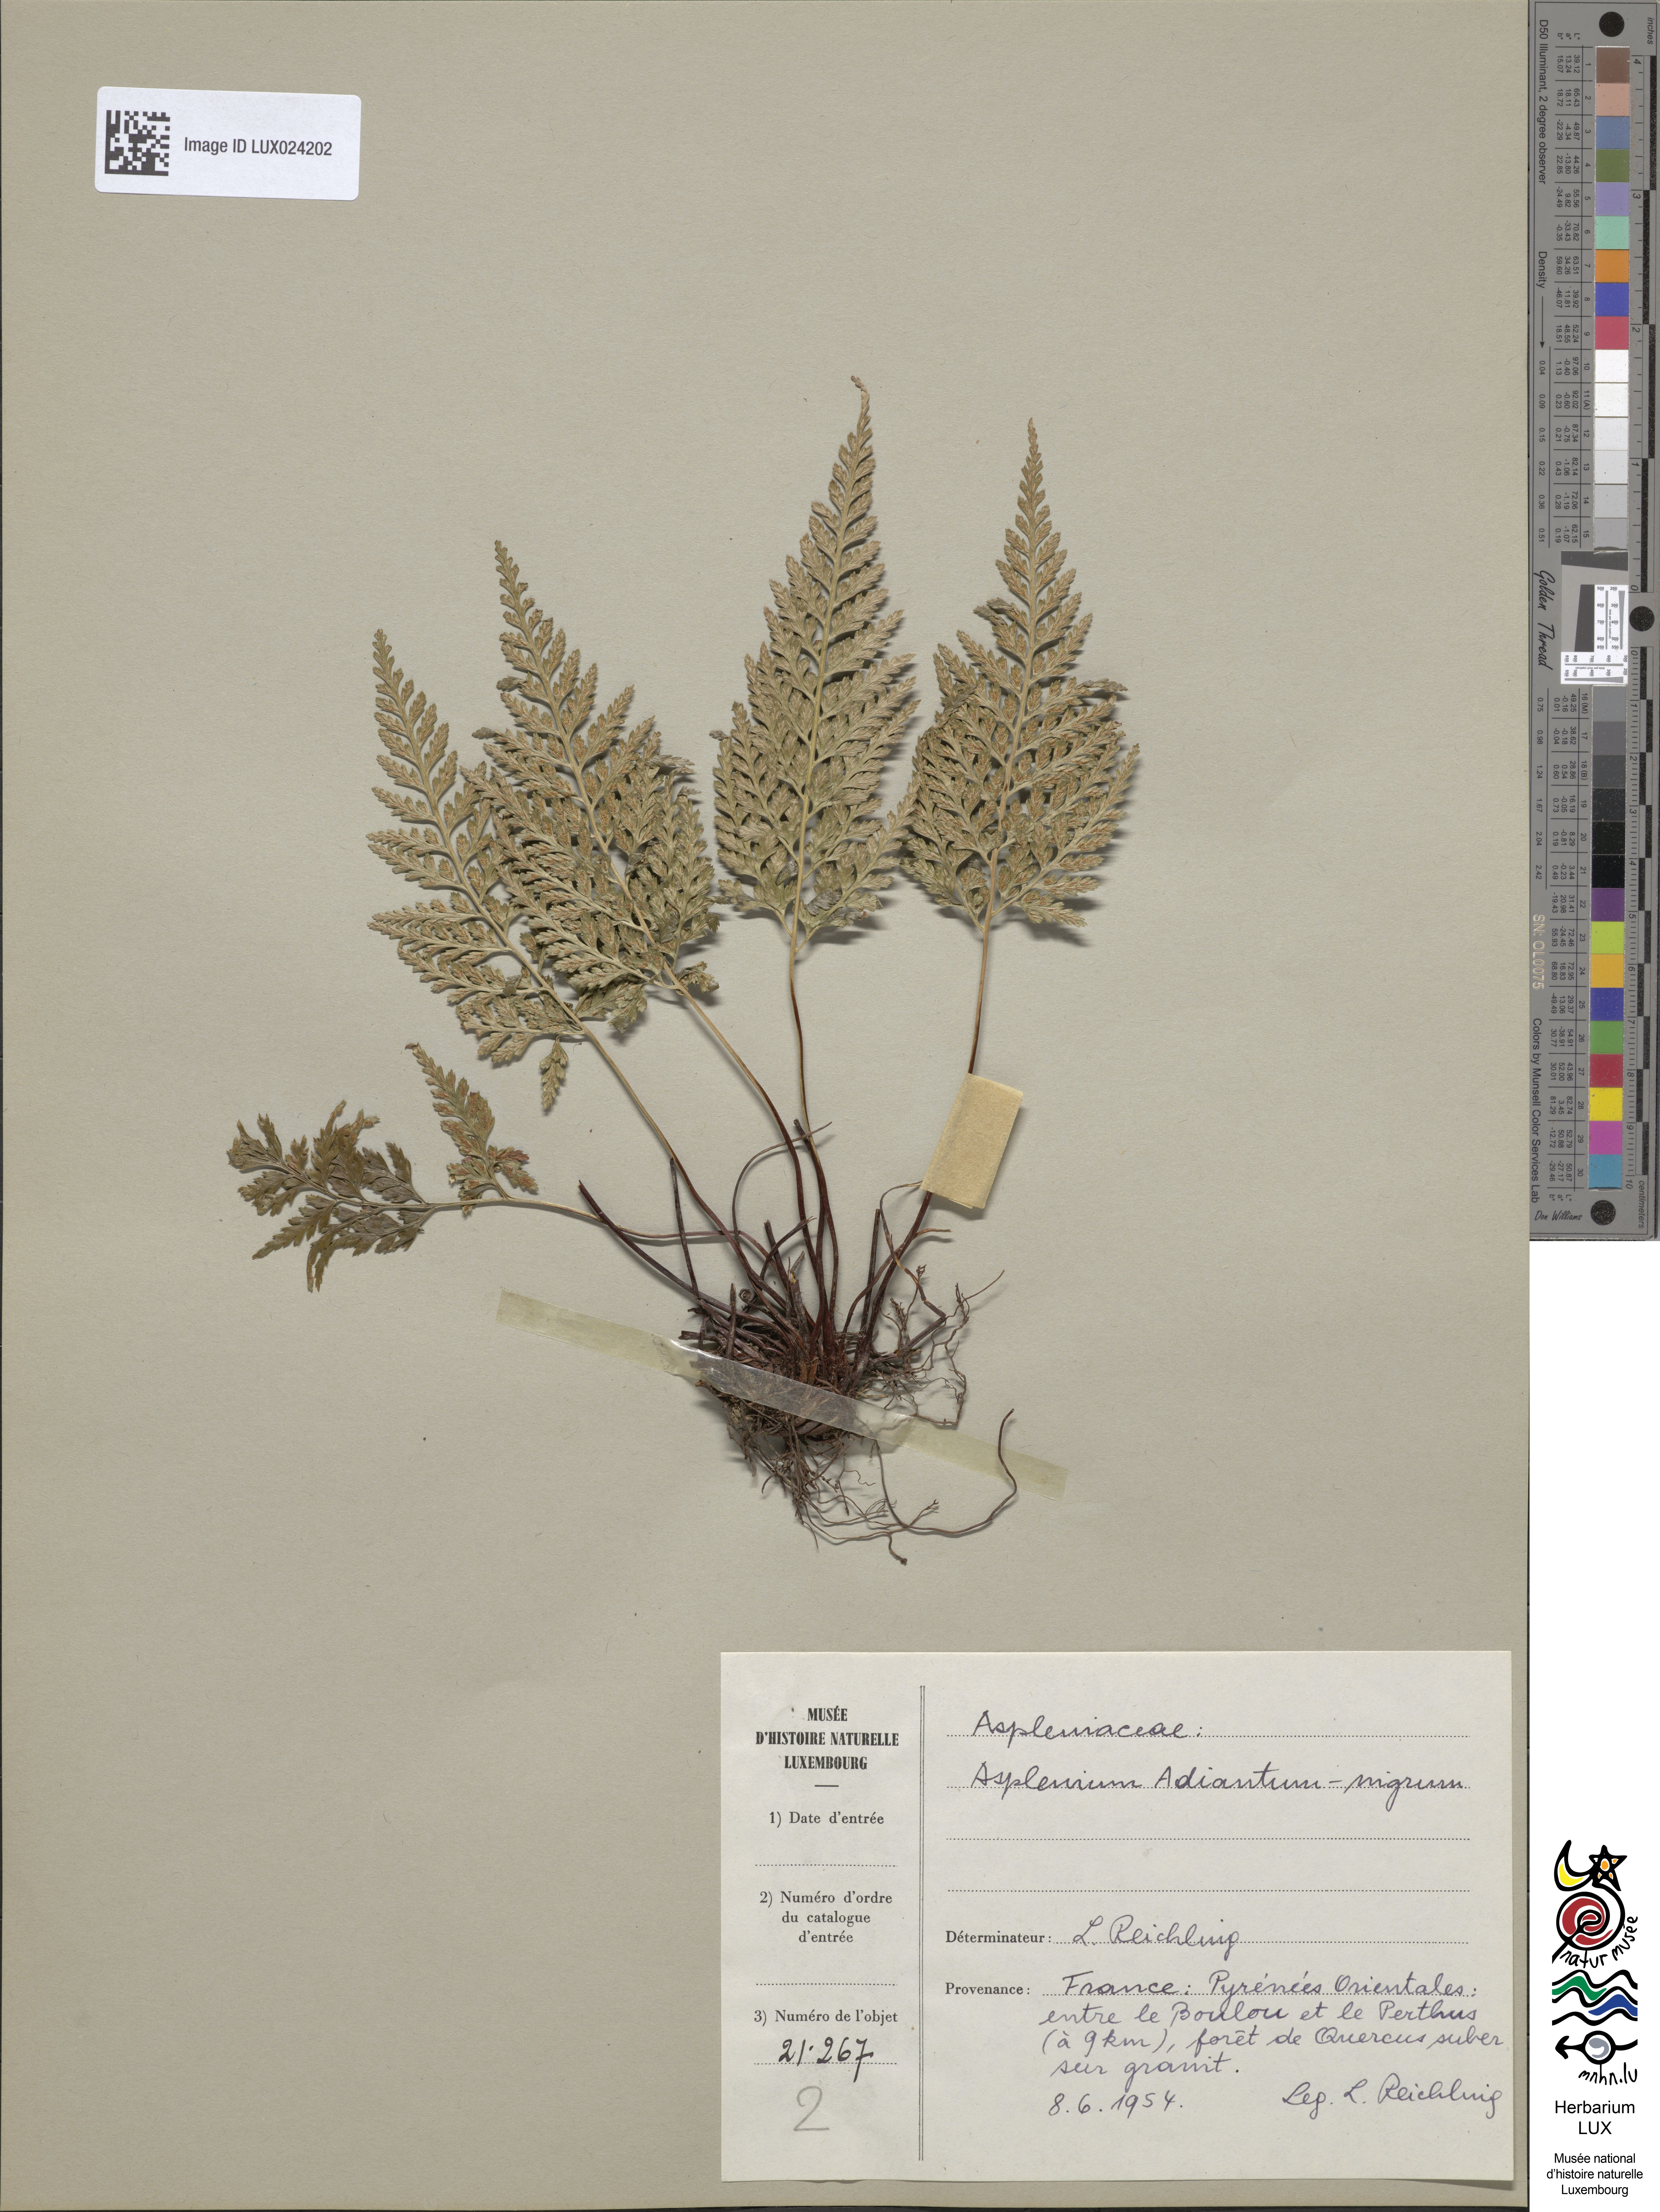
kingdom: Plantae
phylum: Tracheophyta
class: Polypodiopsida
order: Polypodiales
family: Aspleniaceae
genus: Asplenium
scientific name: Asplenium adiantum-nigrum
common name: Black spleenwort
